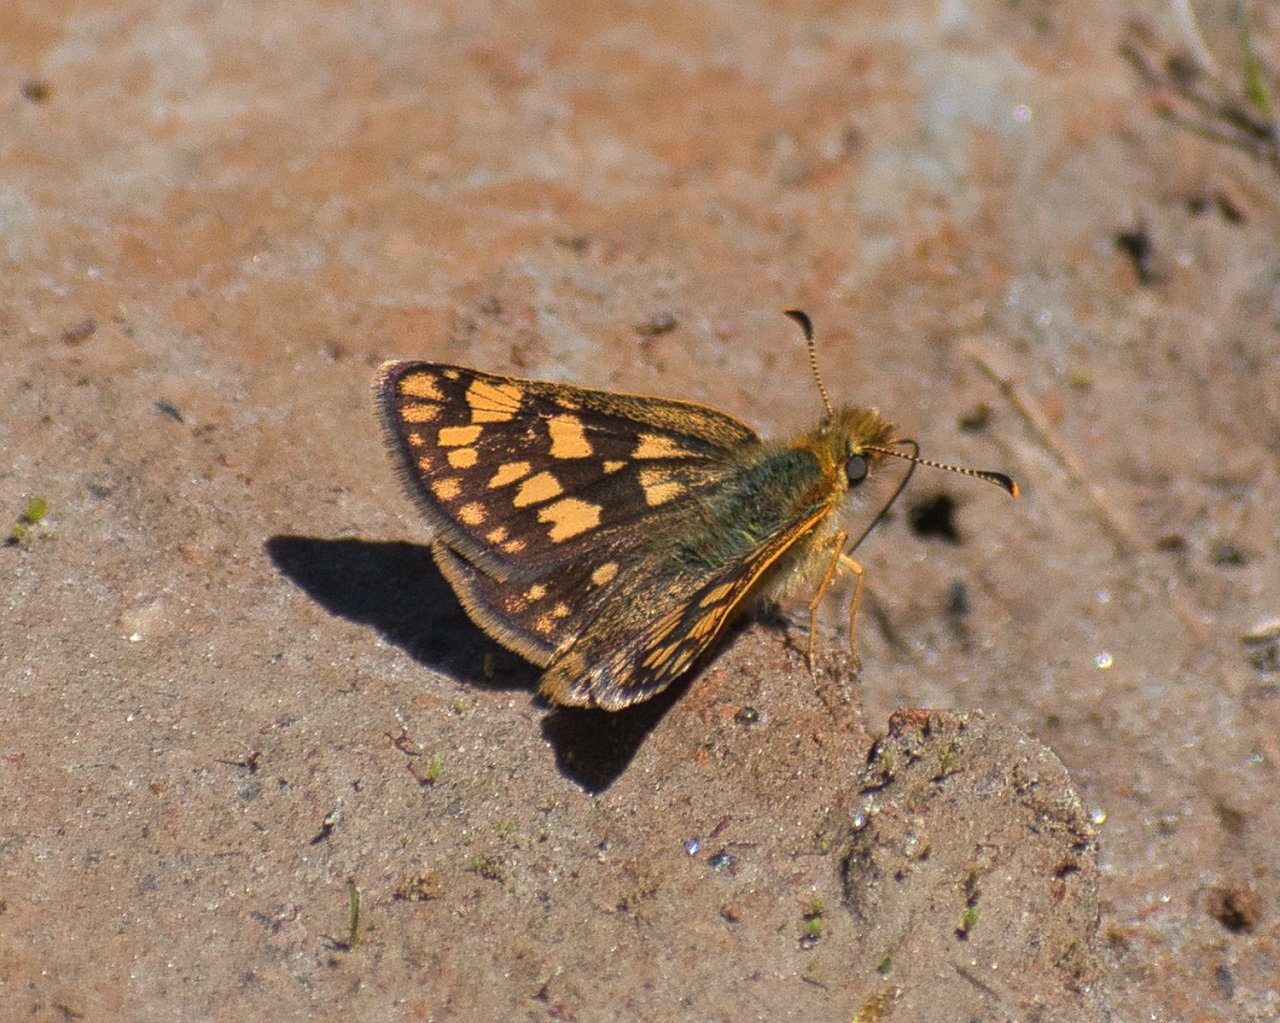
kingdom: Animalia
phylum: Arthropoda
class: Insecta
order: Lepidoptera
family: Hesperiidae
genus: Carterocephalus
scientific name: Carterocephalus palaemon
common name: Chequered Skipper
